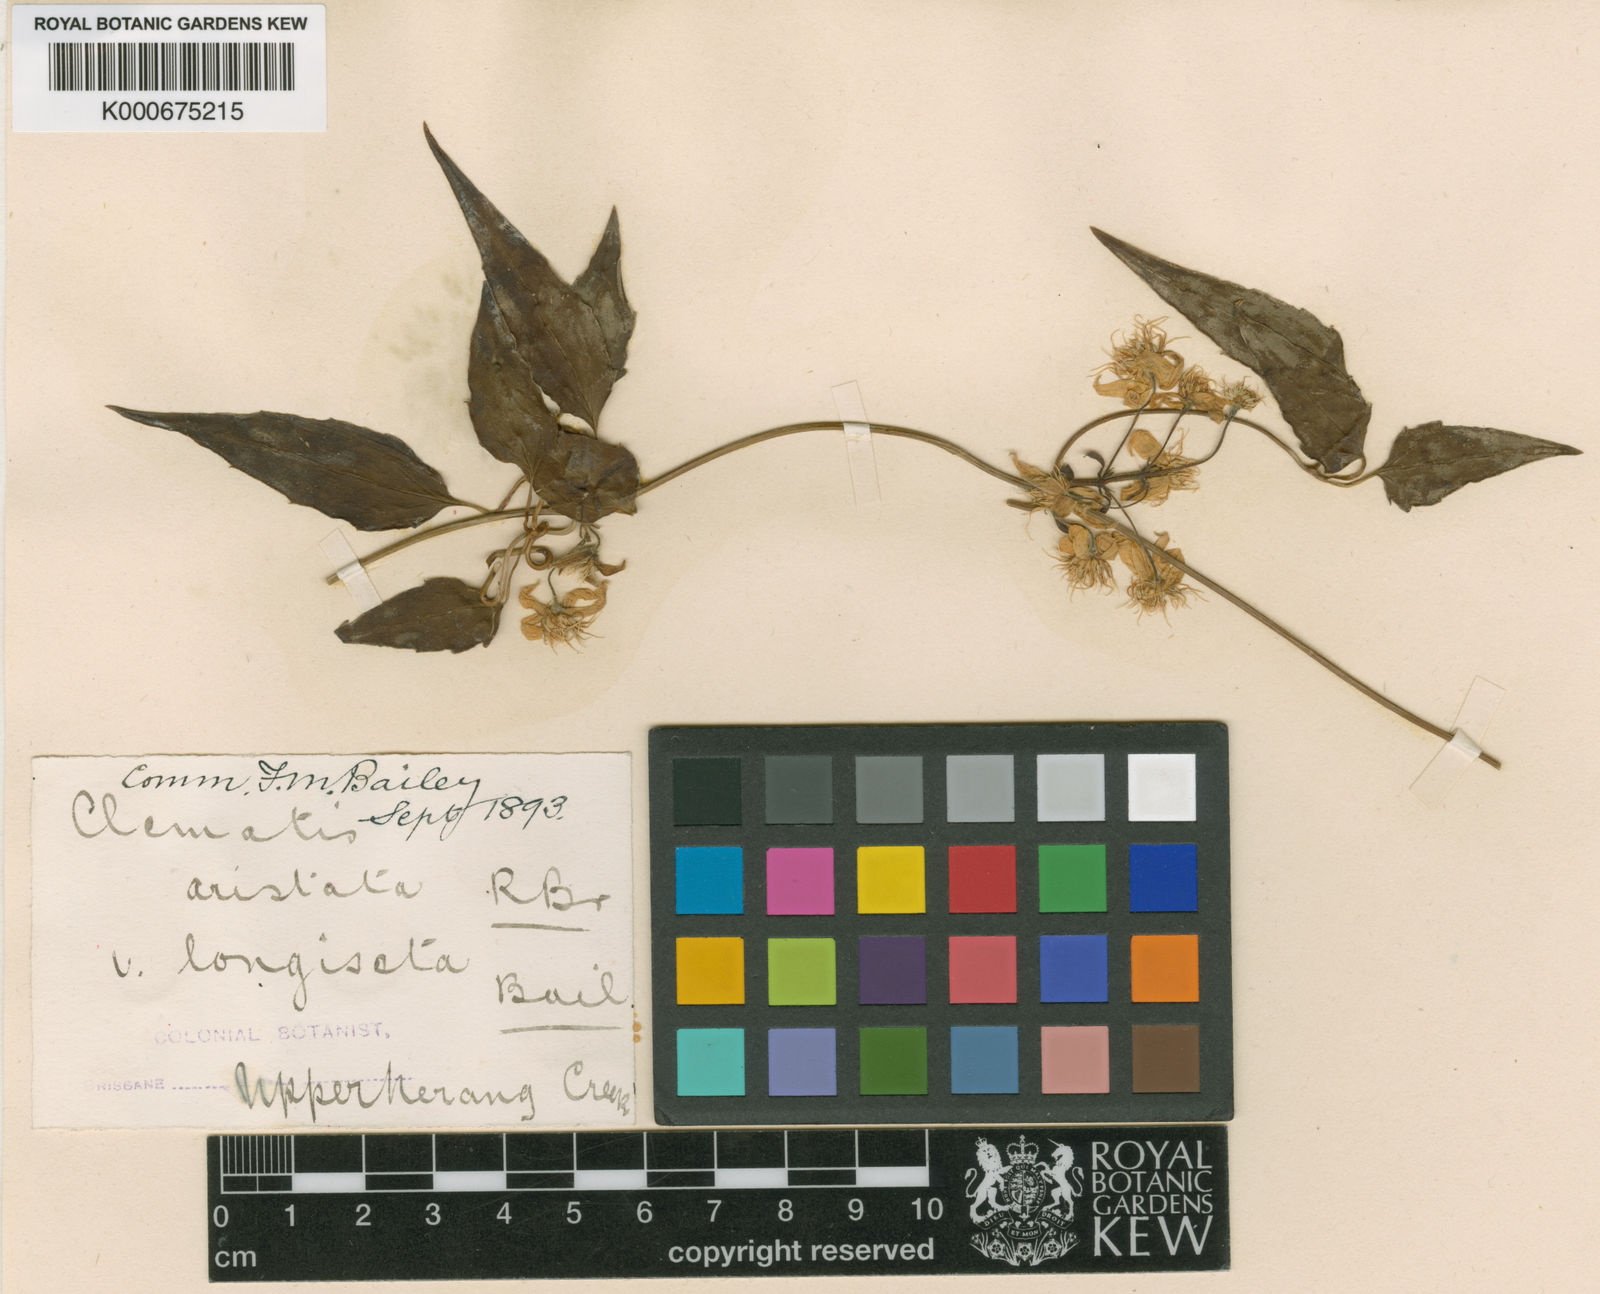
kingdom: Plantae
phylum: Tracheophyta
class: Magnoliopsida
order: Ranunculales
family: Ranunculaceae
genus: Clematis
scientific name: Clematis aristata
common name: Mountain clematis
